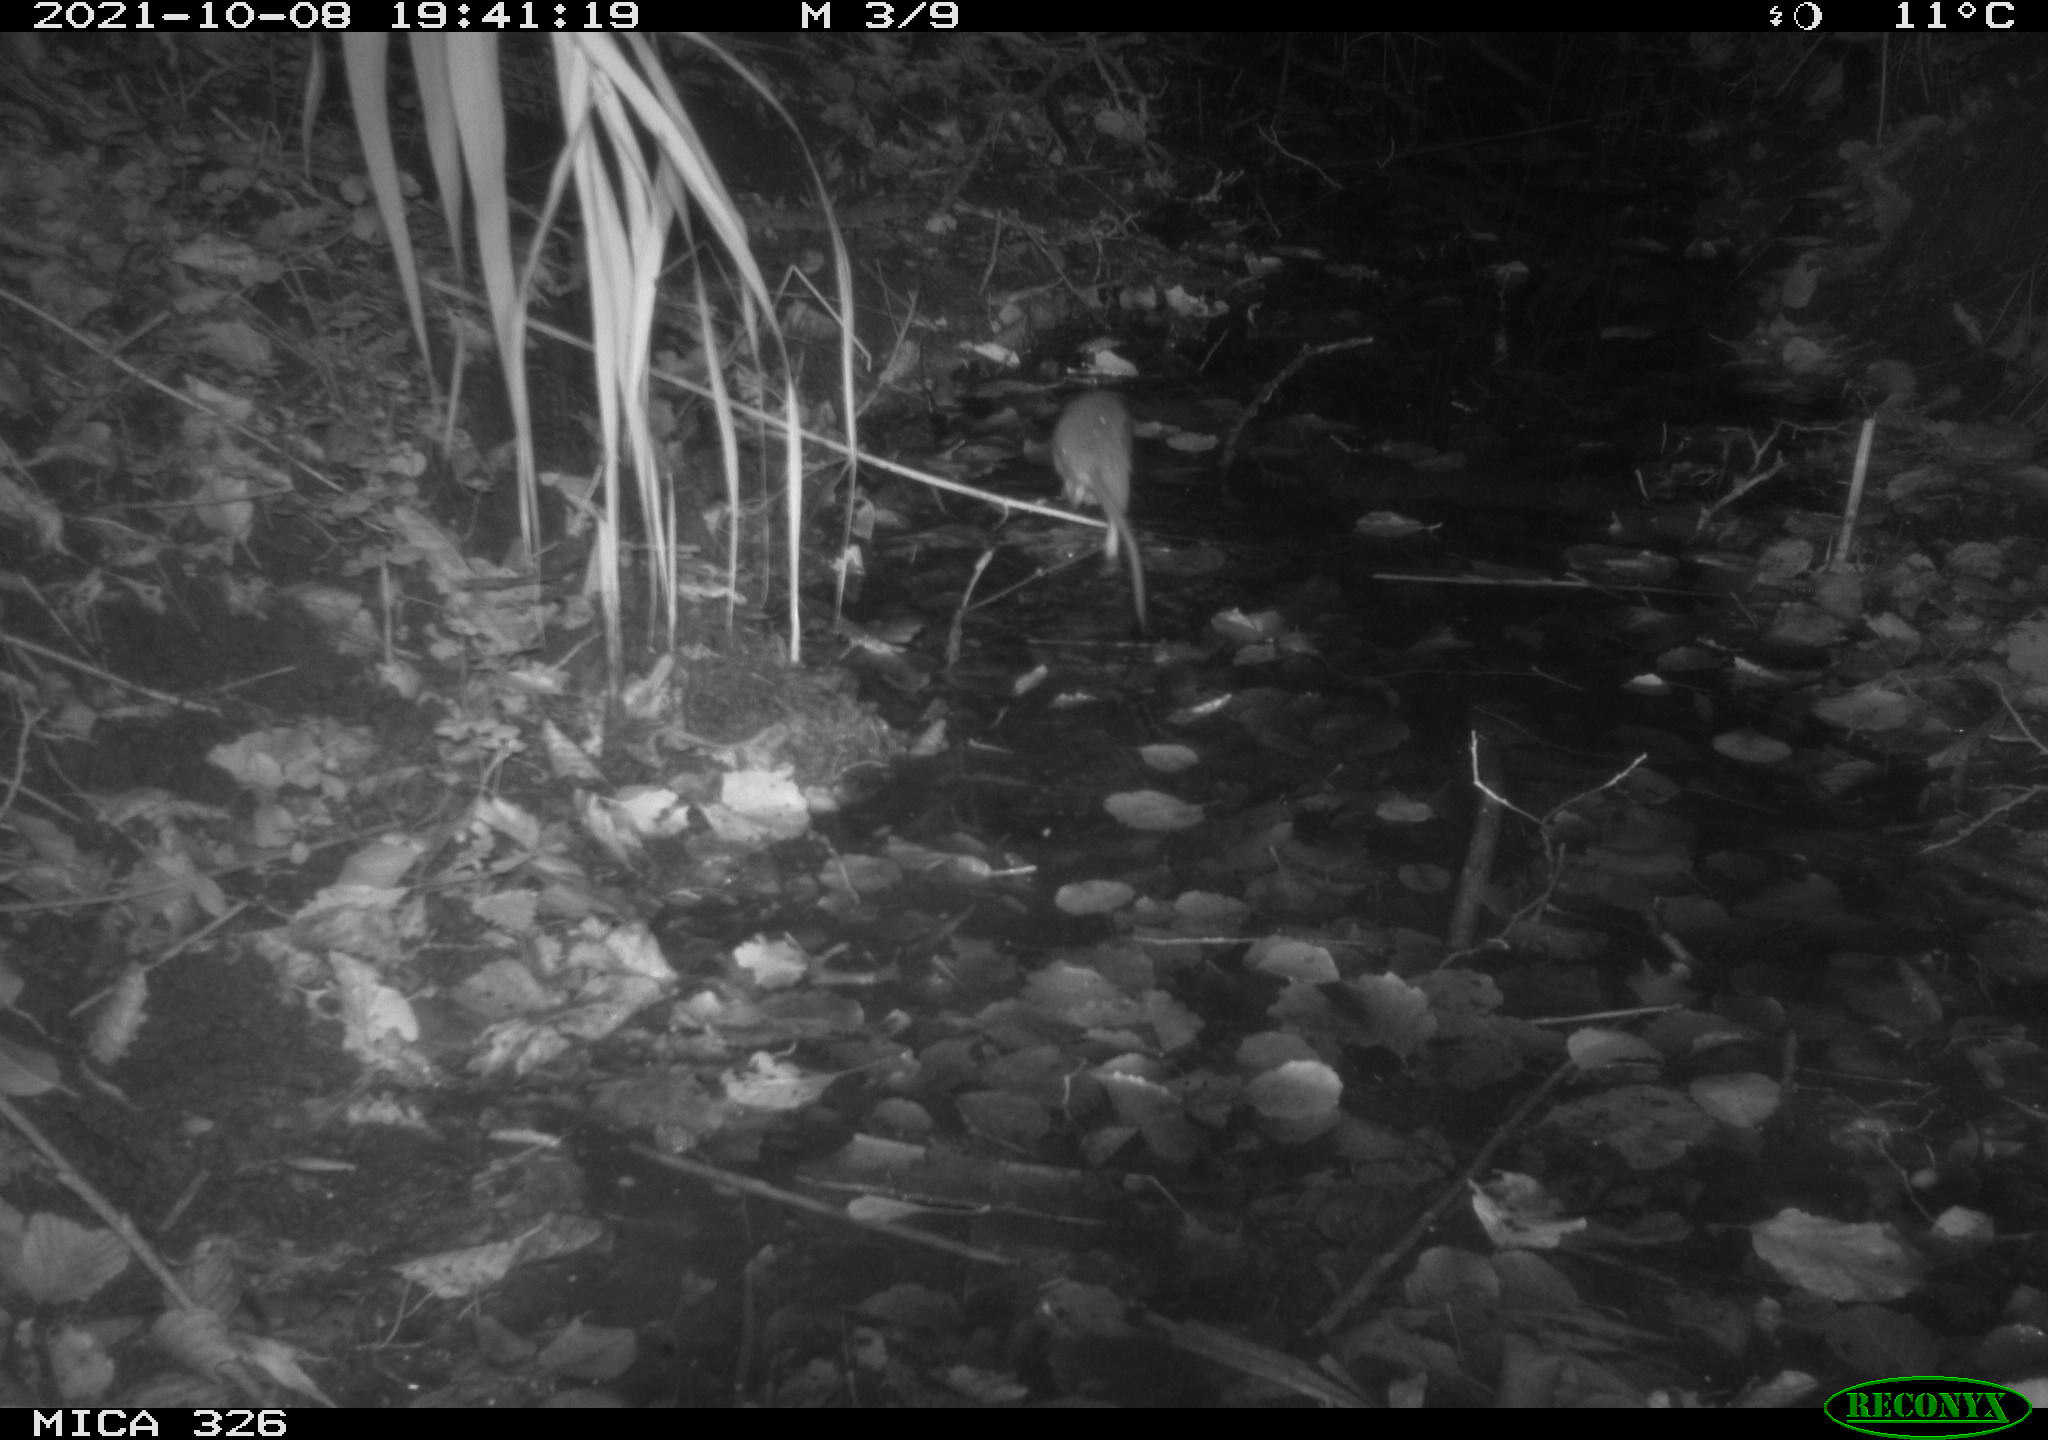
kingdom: Animalia
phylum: Chordata
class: Mammalia
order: Rodentia
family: Muridae
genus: Rattus
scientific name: Rattus norvegicus
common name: Brown rat
